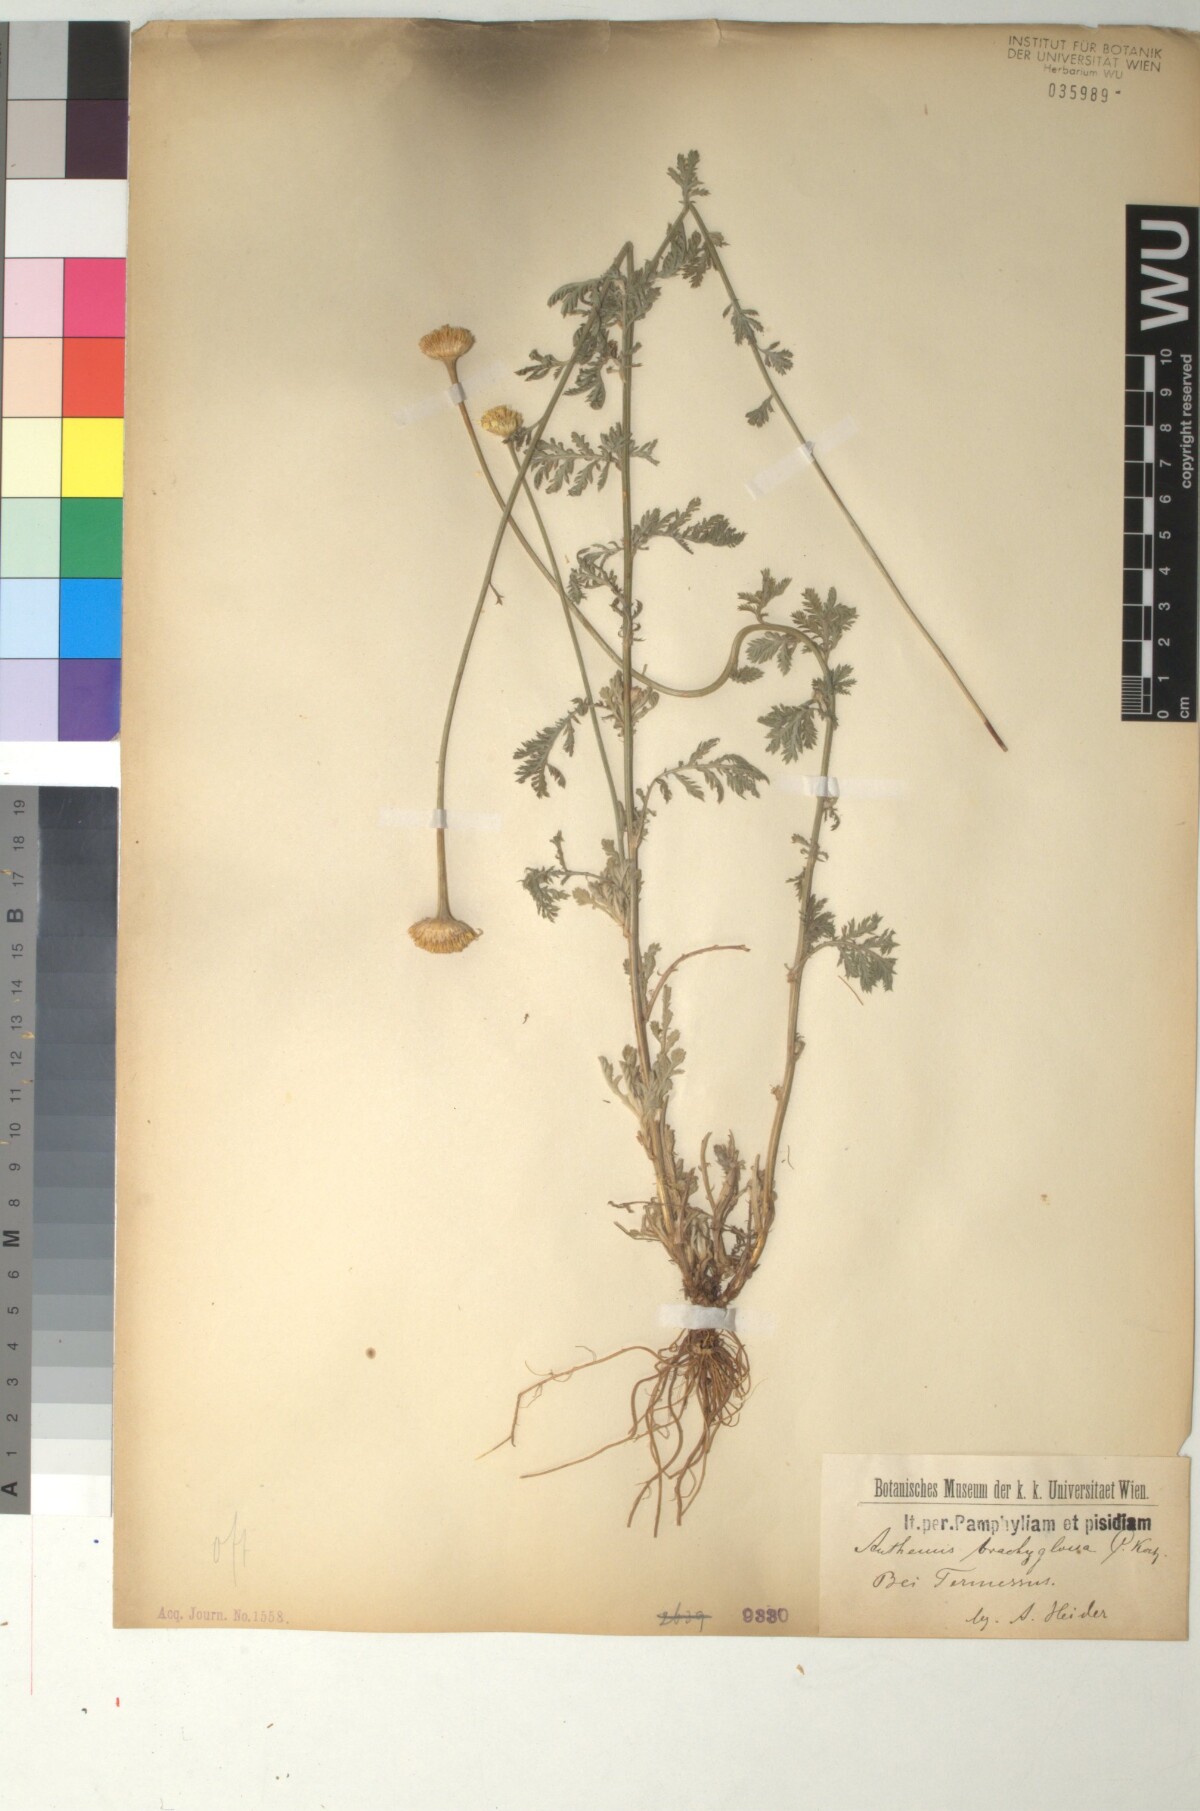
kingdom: Plantae
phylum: Tracheophyta
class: Magnoliopsida
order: Asterales
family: Asteraceae
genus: Cota
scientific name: Cota tinctoria
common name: Golden chamomile
